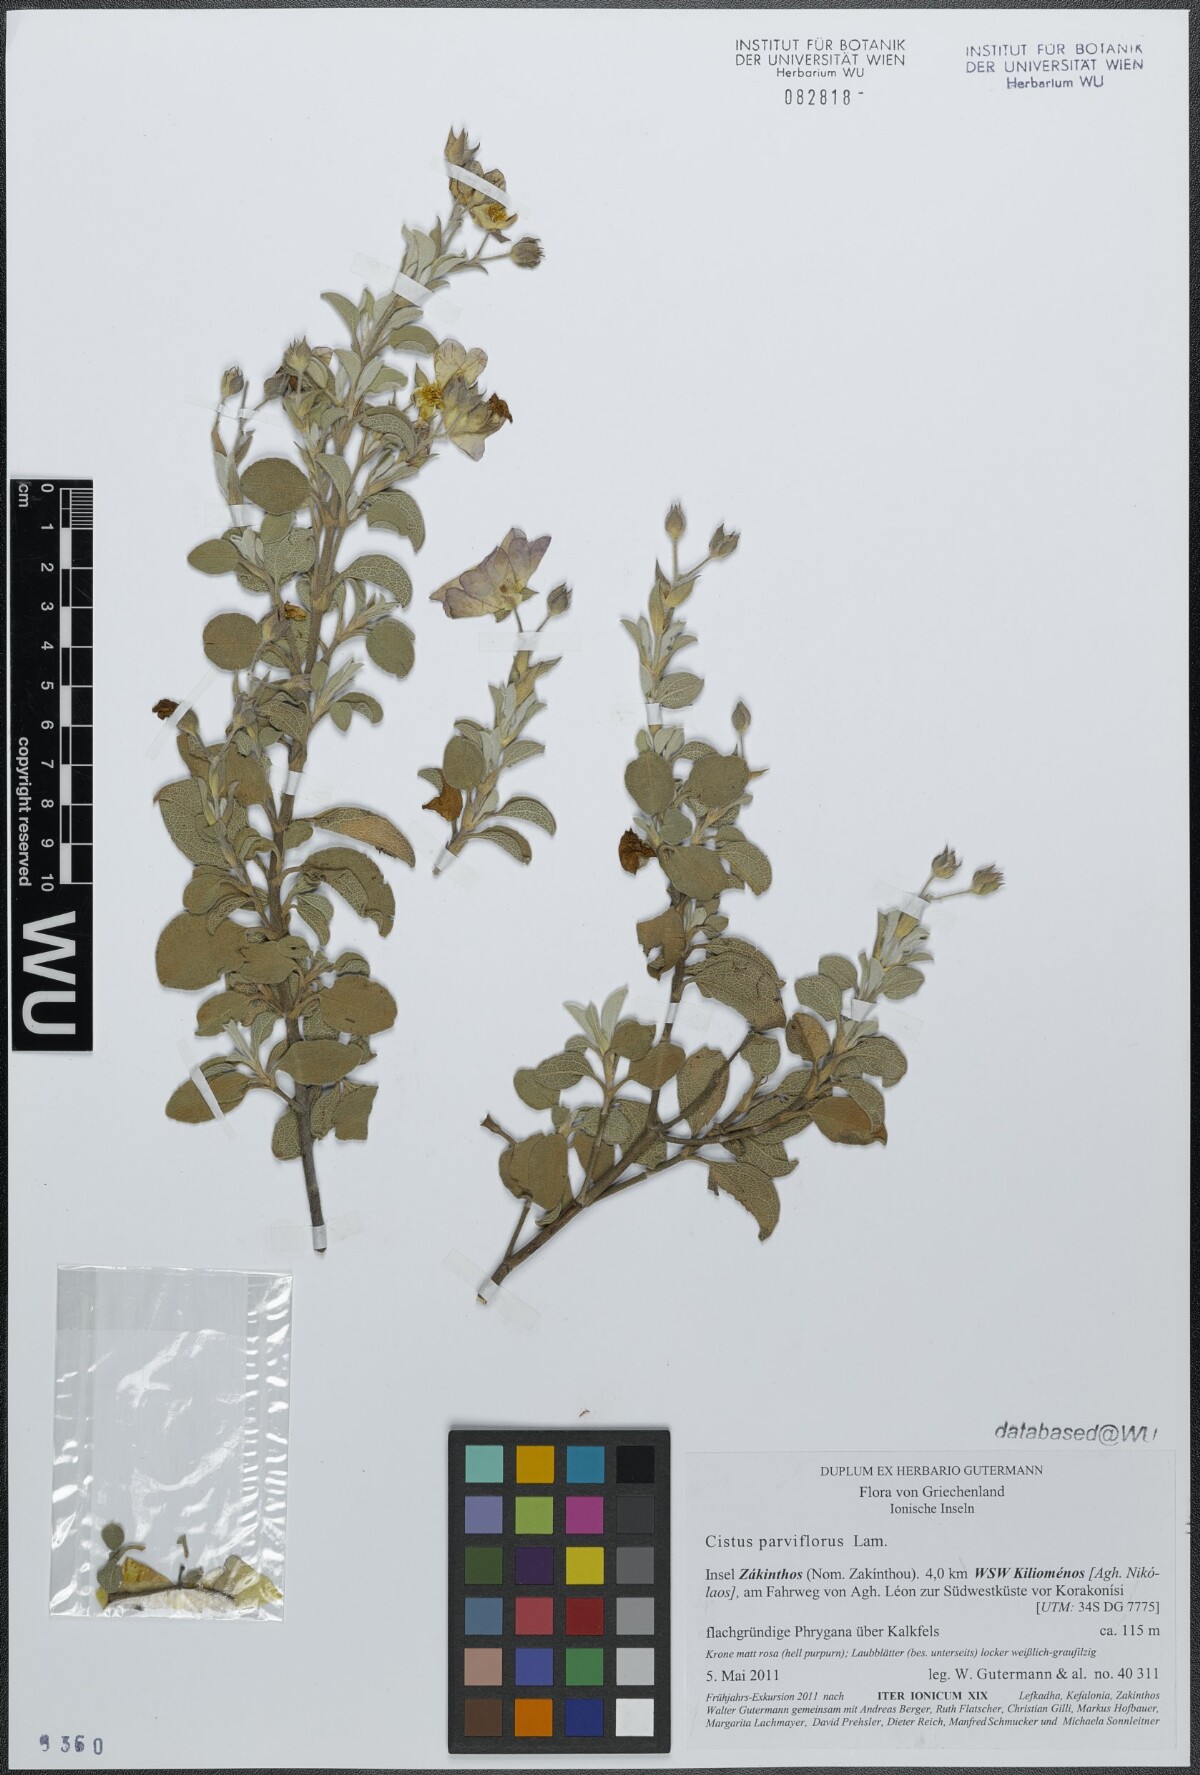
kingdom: Plantae
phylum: Tracheophyta
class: Magnoliopsida
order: Malvales
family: Cistaceae
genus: Cistus
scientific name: Cistus parviflorus
